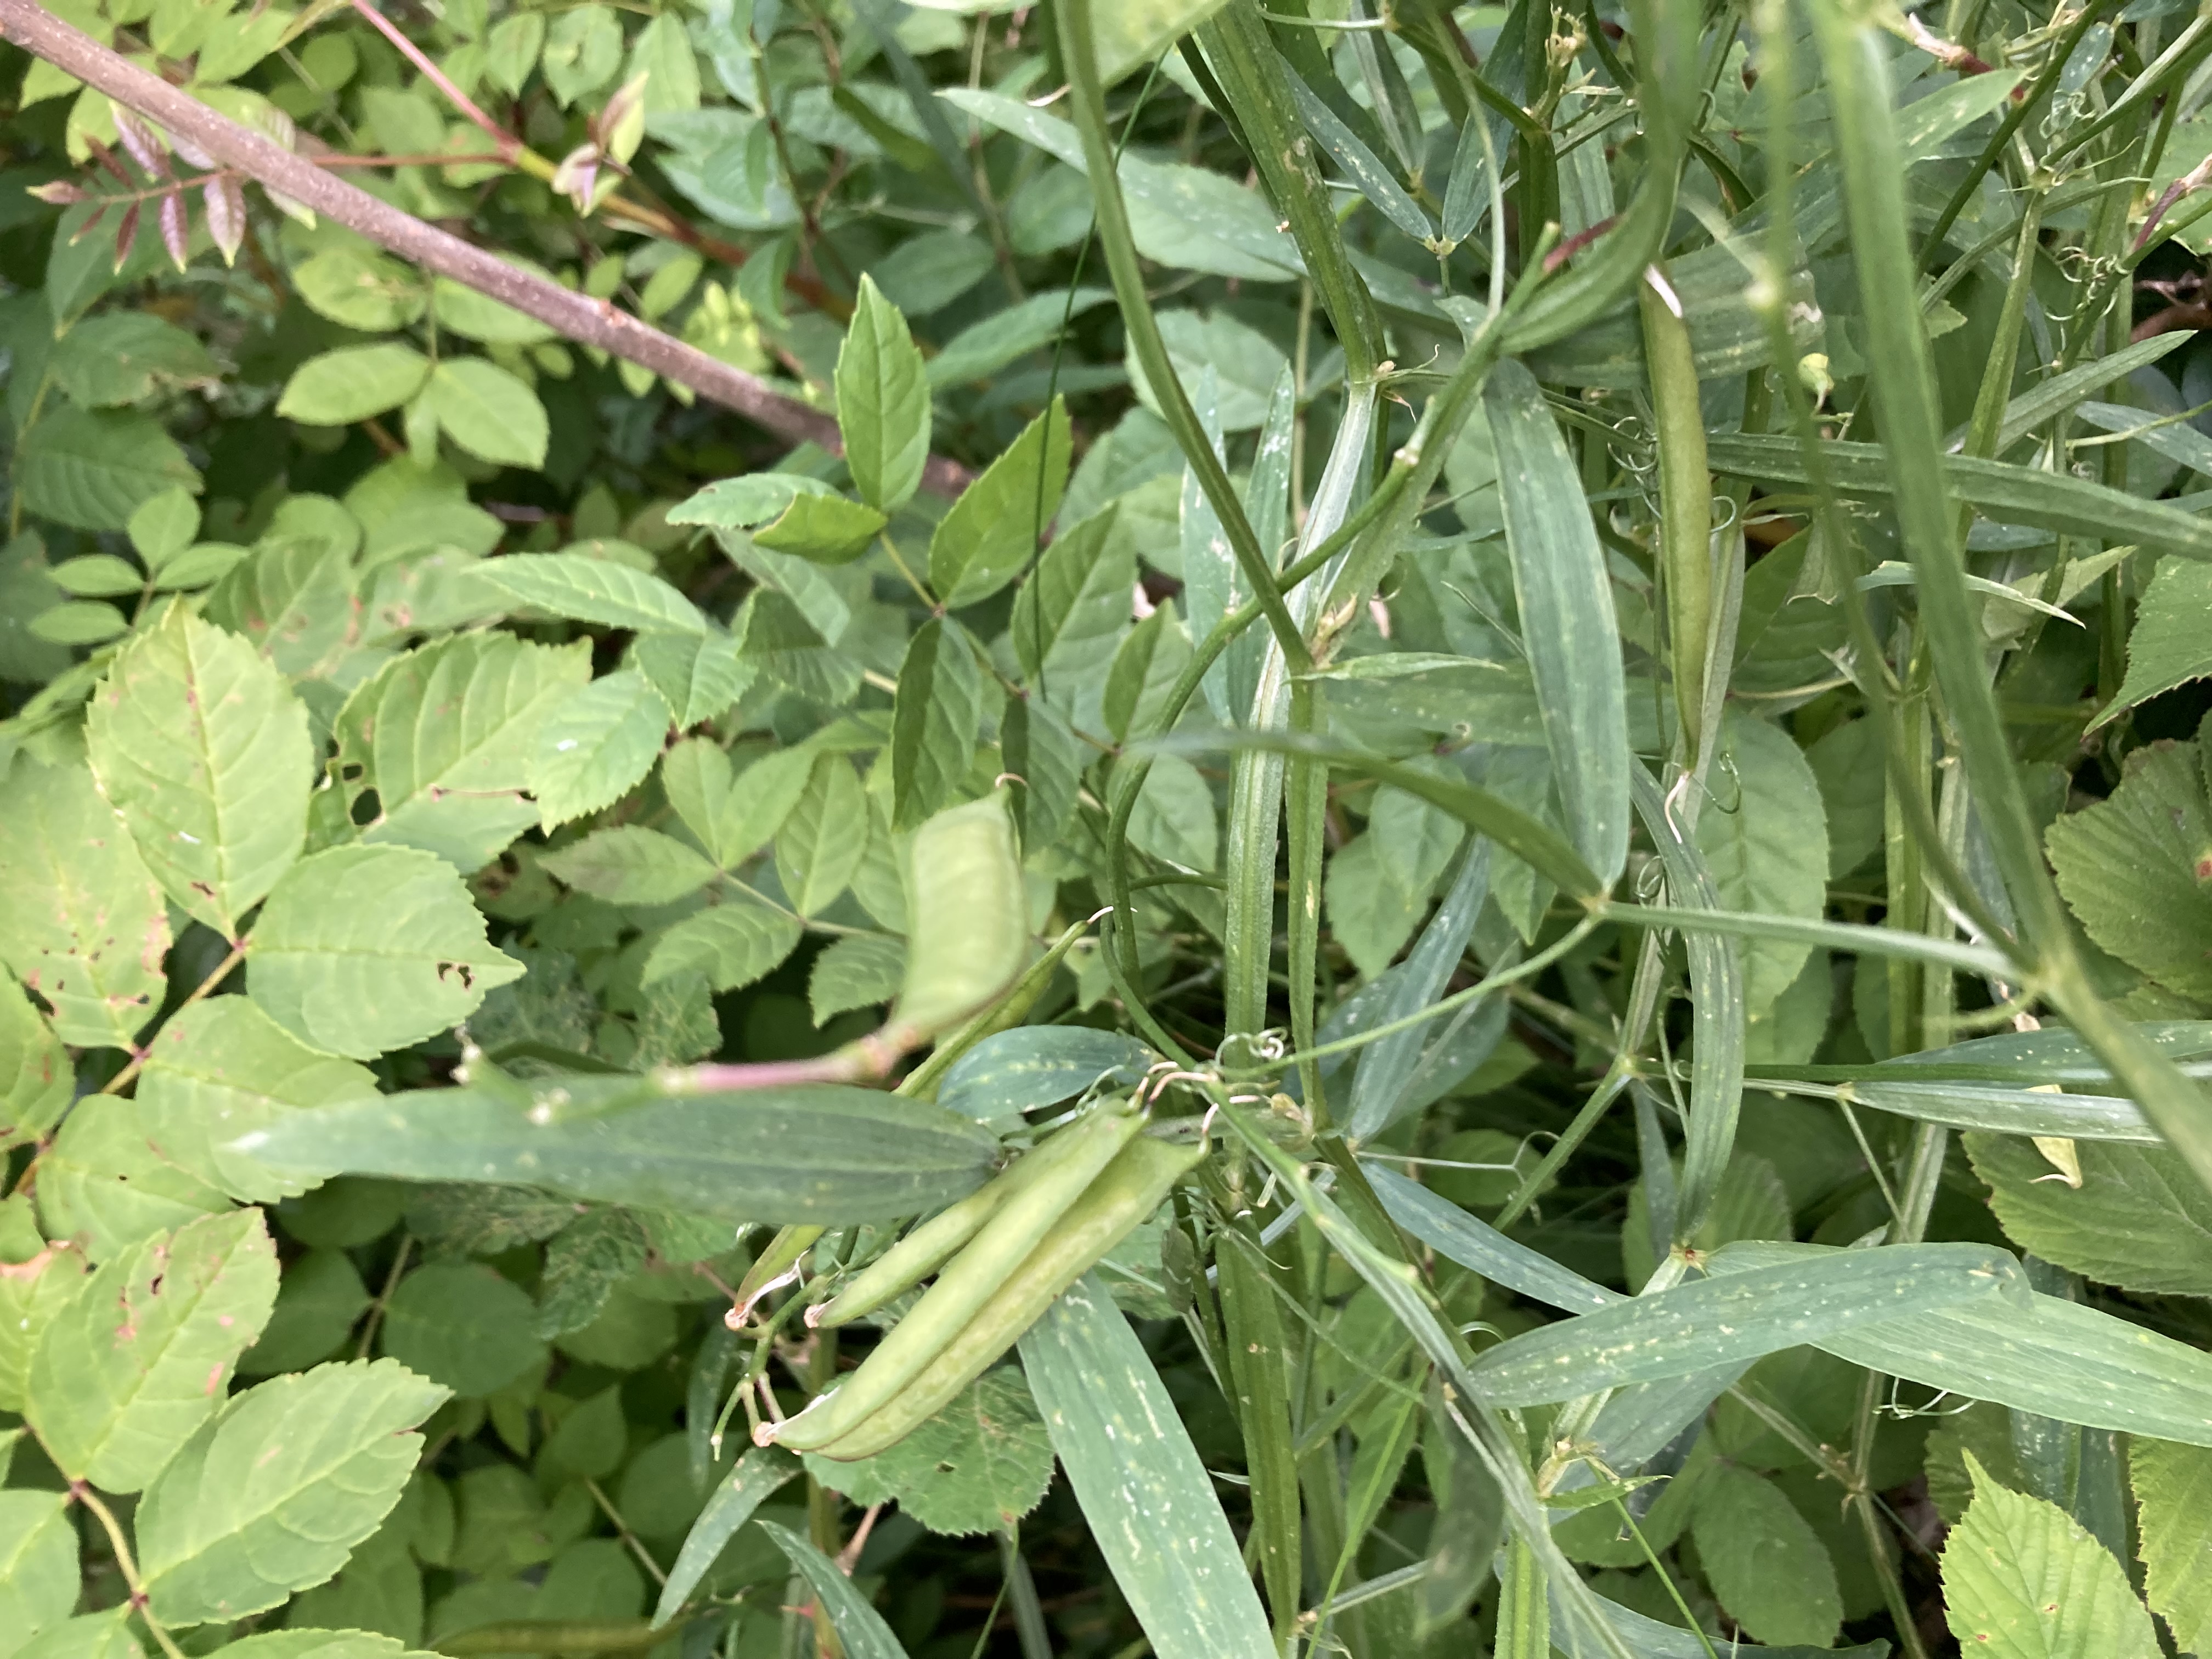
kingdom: Plantae
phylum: Tracheophyta
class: Magnoliopsida
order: Fabales
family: Fabaceae
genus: Lathyrus
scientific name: Lathyrus sylvestris
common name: Skov-fladbælg
